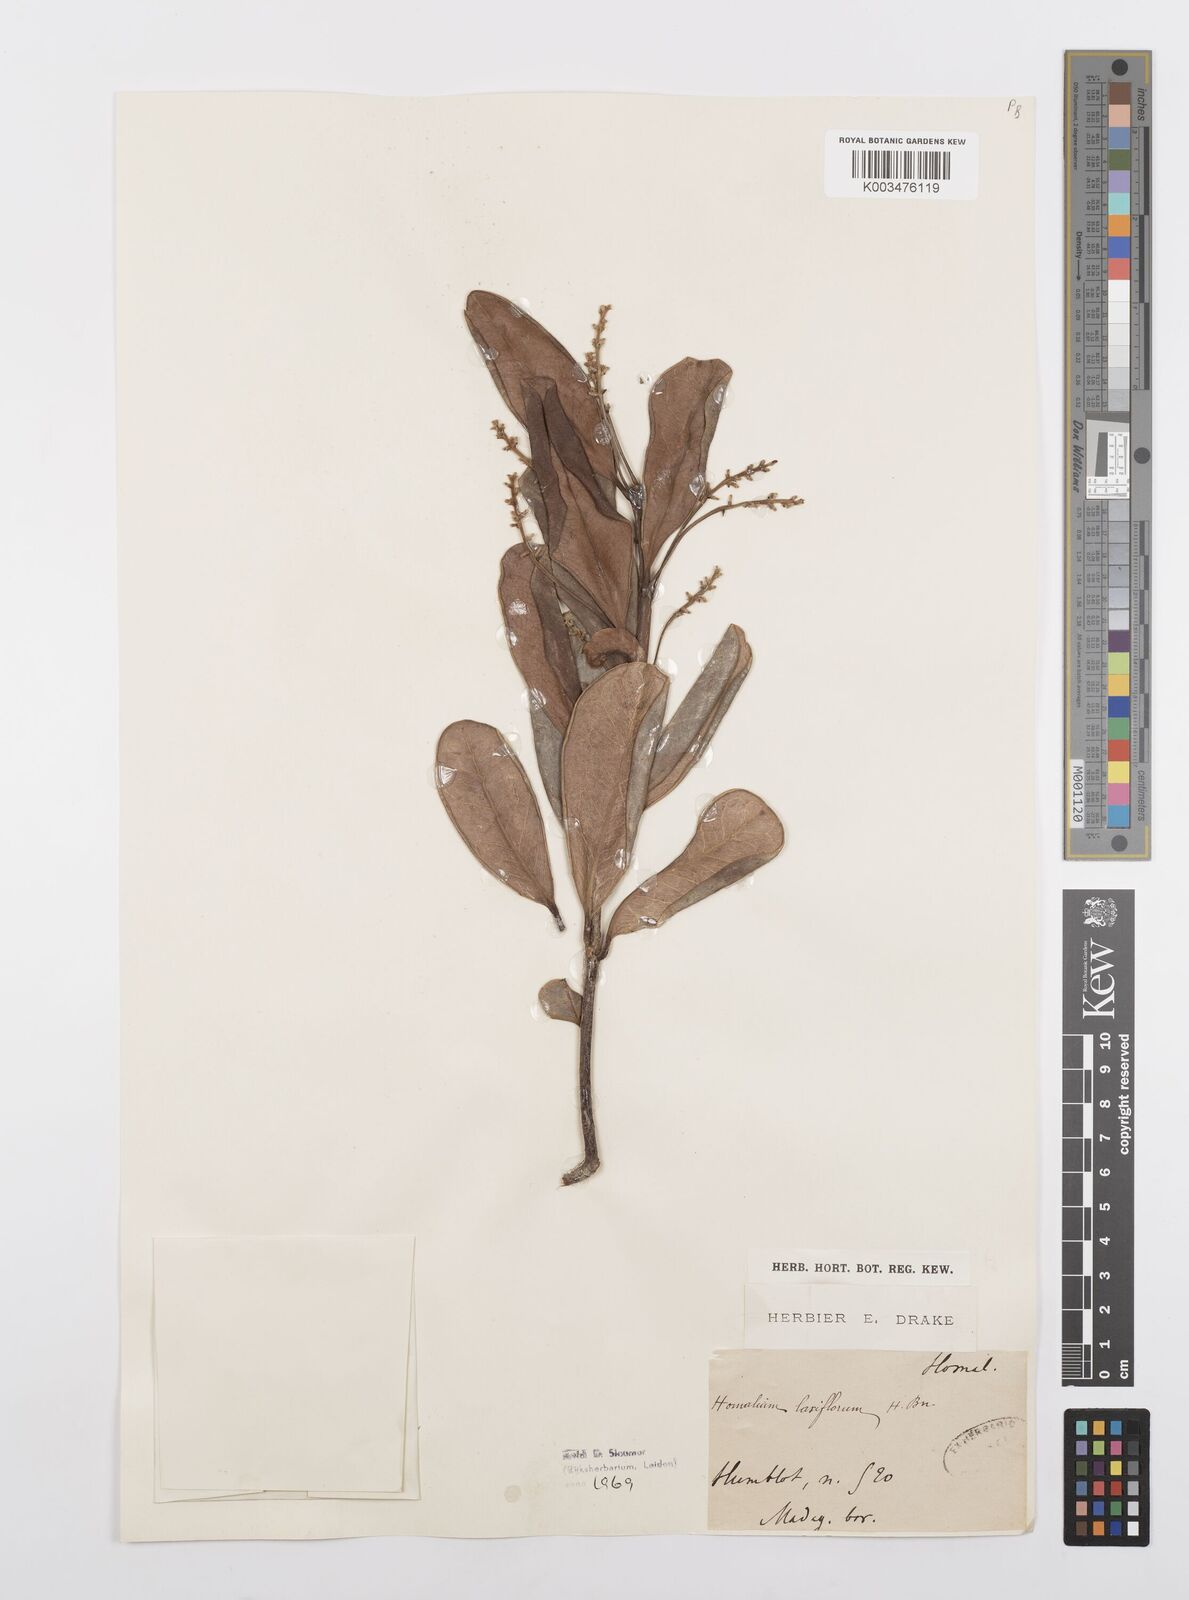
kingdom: Plantae
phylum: Tracheophyta
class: Magnoliopsida
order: Malpighiales
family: Salicaceae
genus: Homalium
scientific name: Homalium laxiflorum
